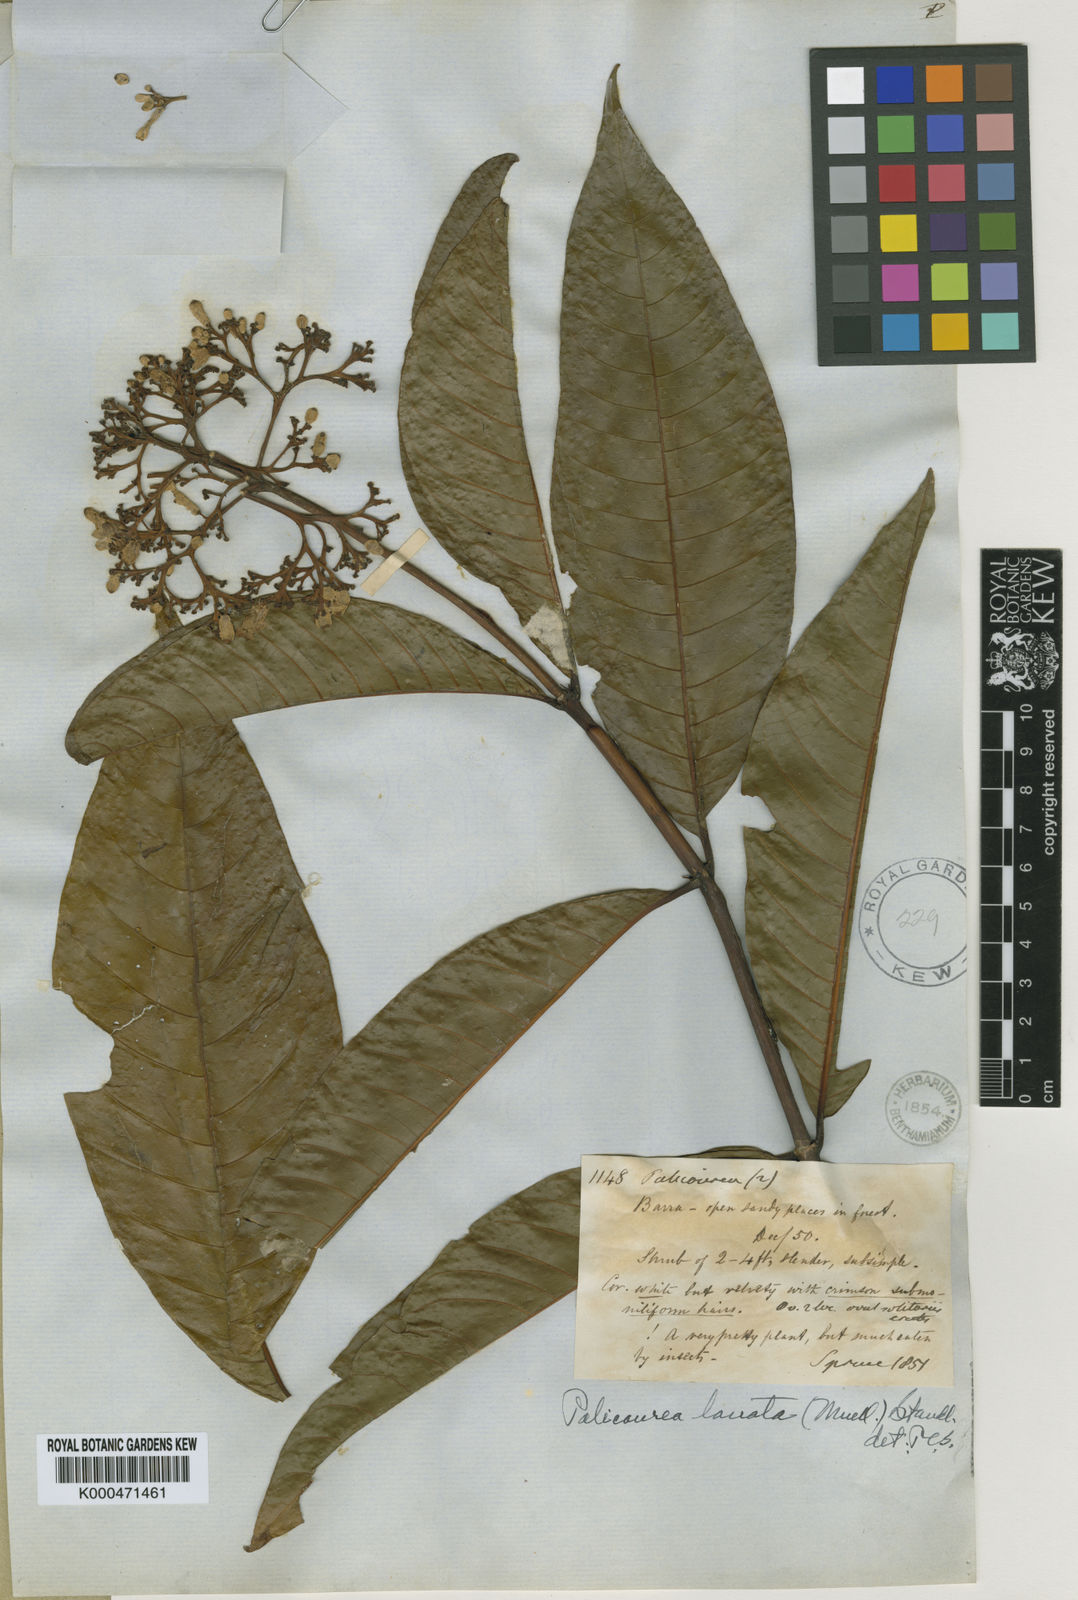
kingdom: Plantae
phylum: Tracheophyta
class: Magnoliopsida
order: Gentianales
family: Rubiaceae
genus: Palicourea
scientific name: Palicourea
